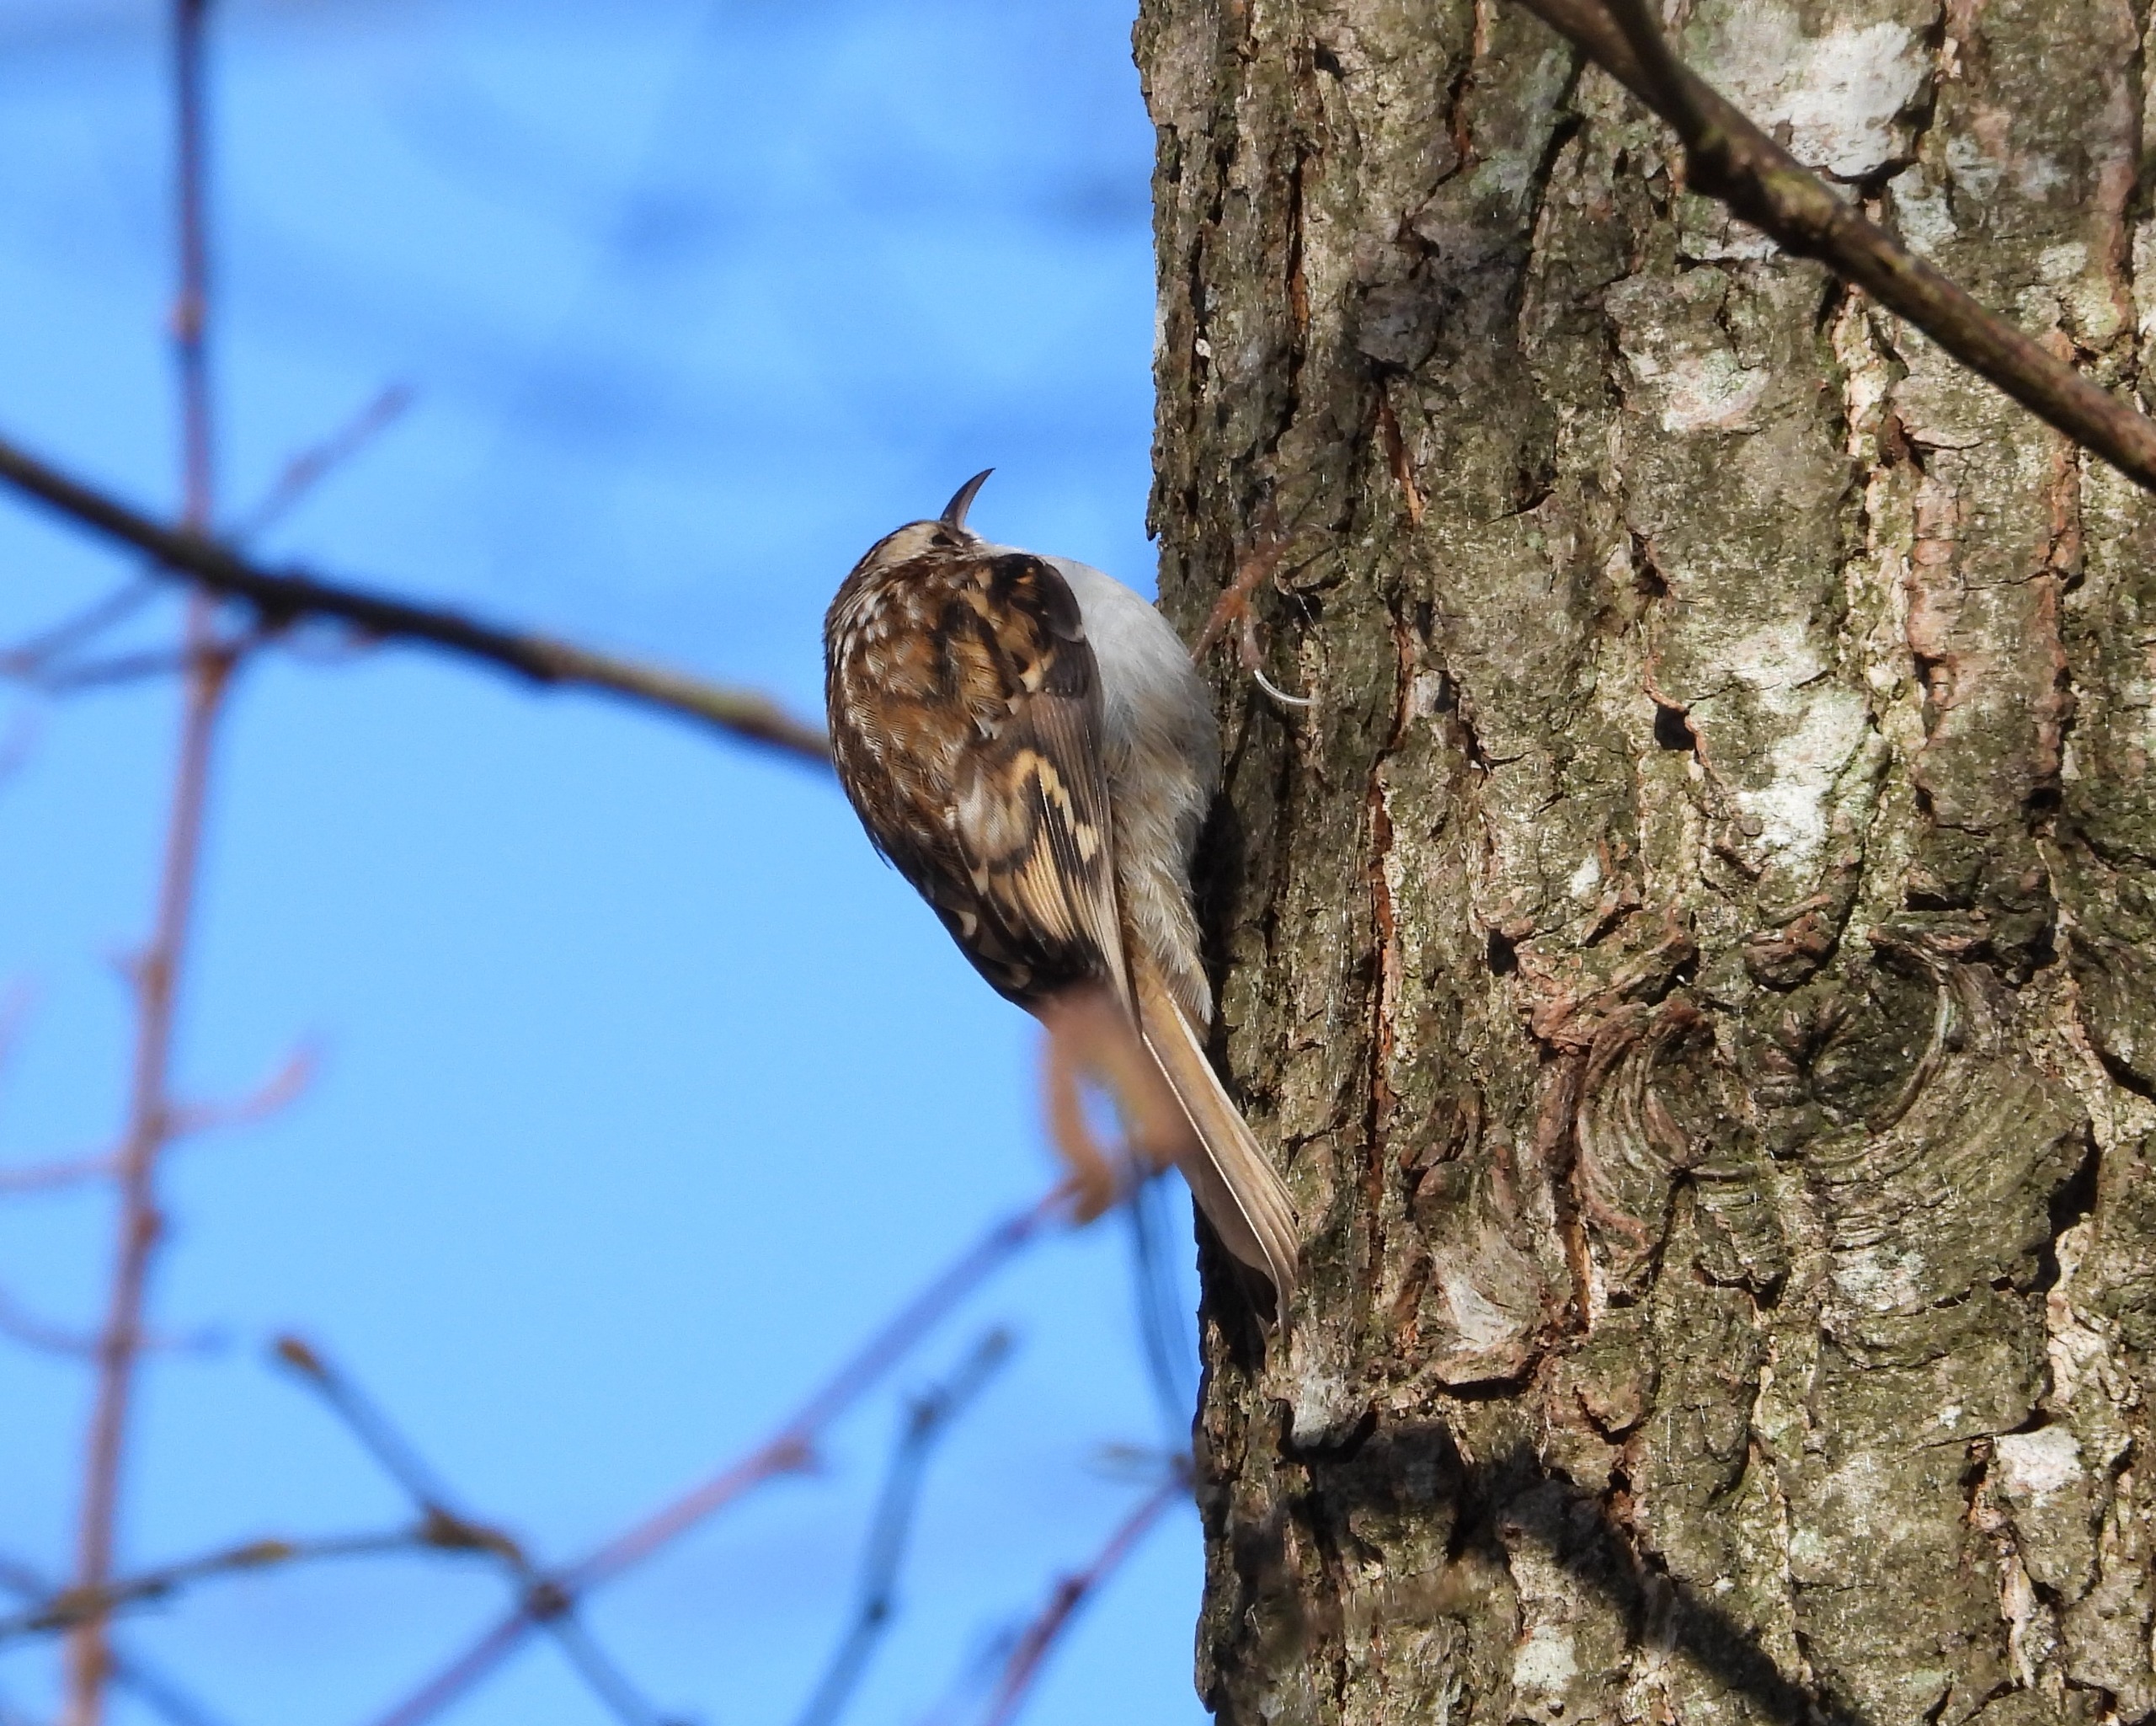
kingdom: Animalia
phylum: Chordata
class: Aves
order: Passeriformes
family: Certhiidae
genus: Certhia
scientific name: Certhia familiaris
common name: Træløber
